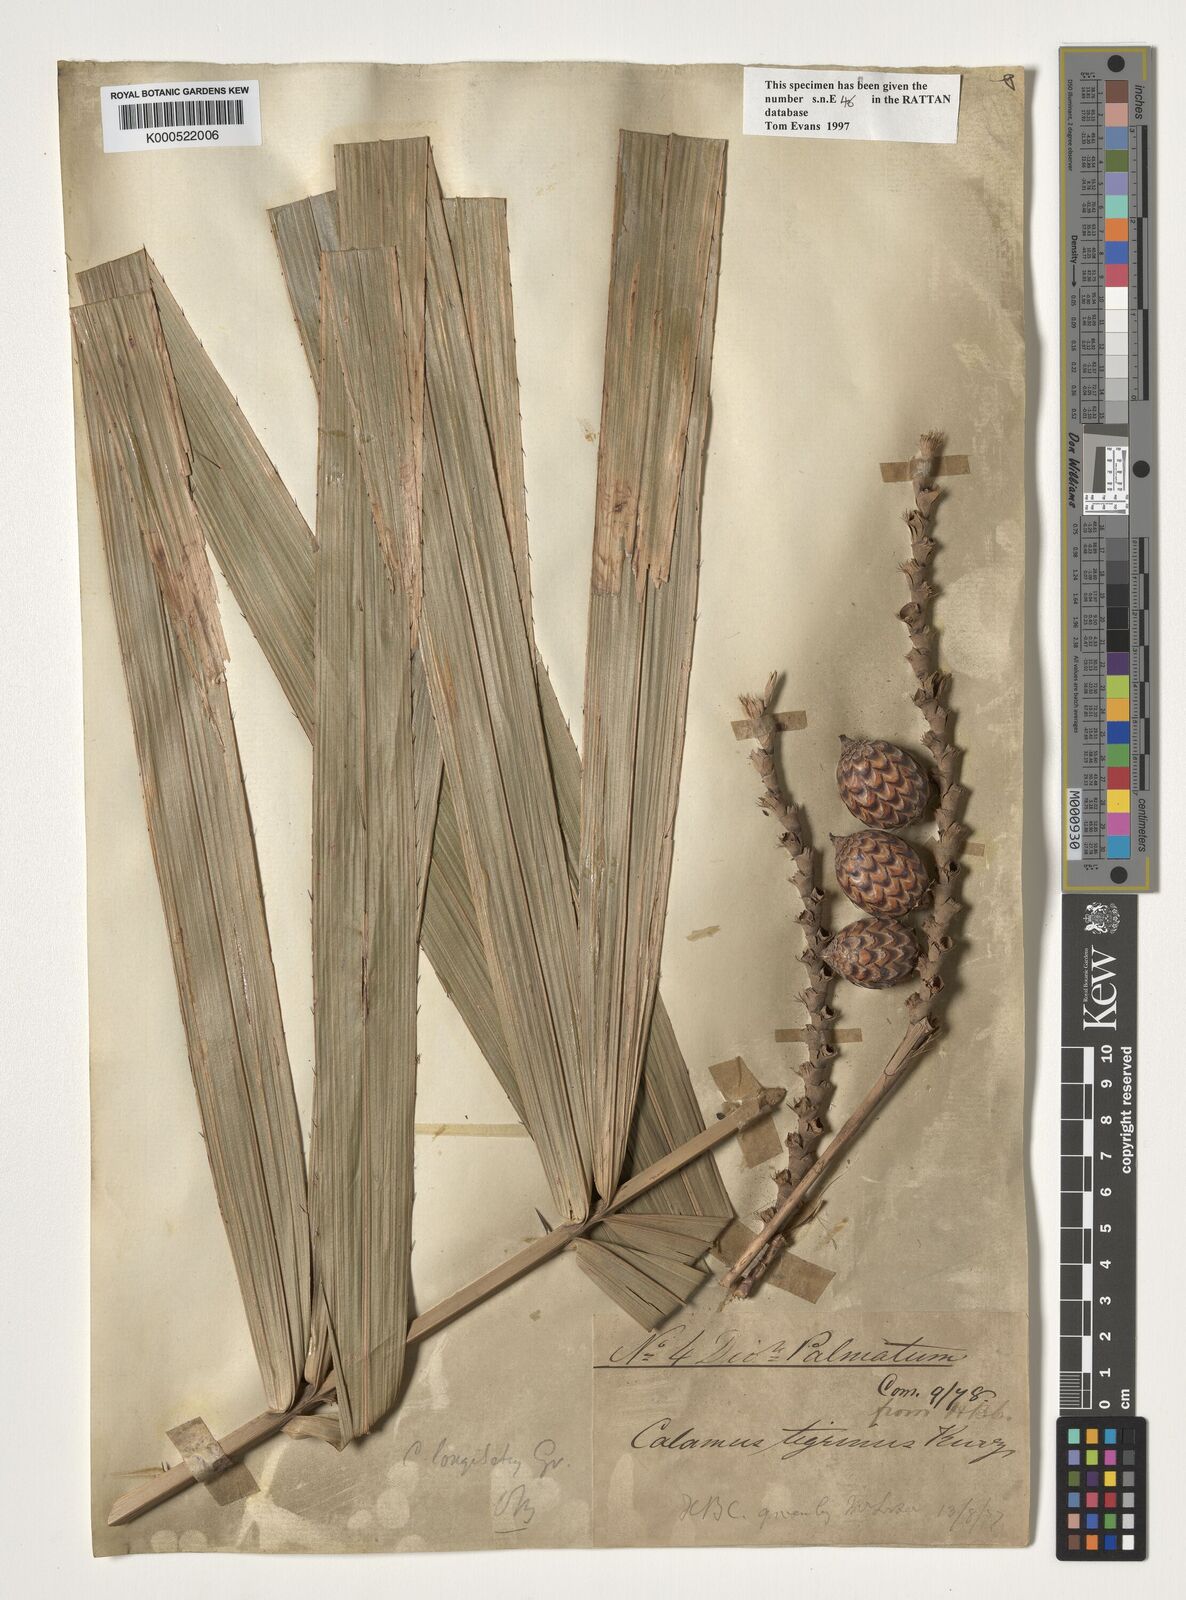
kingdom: Plantae
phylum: Tracheophyta
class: Liliopsida
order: Arecales
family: Arecaceae
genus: Calamus
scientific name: Calamus longisetus
